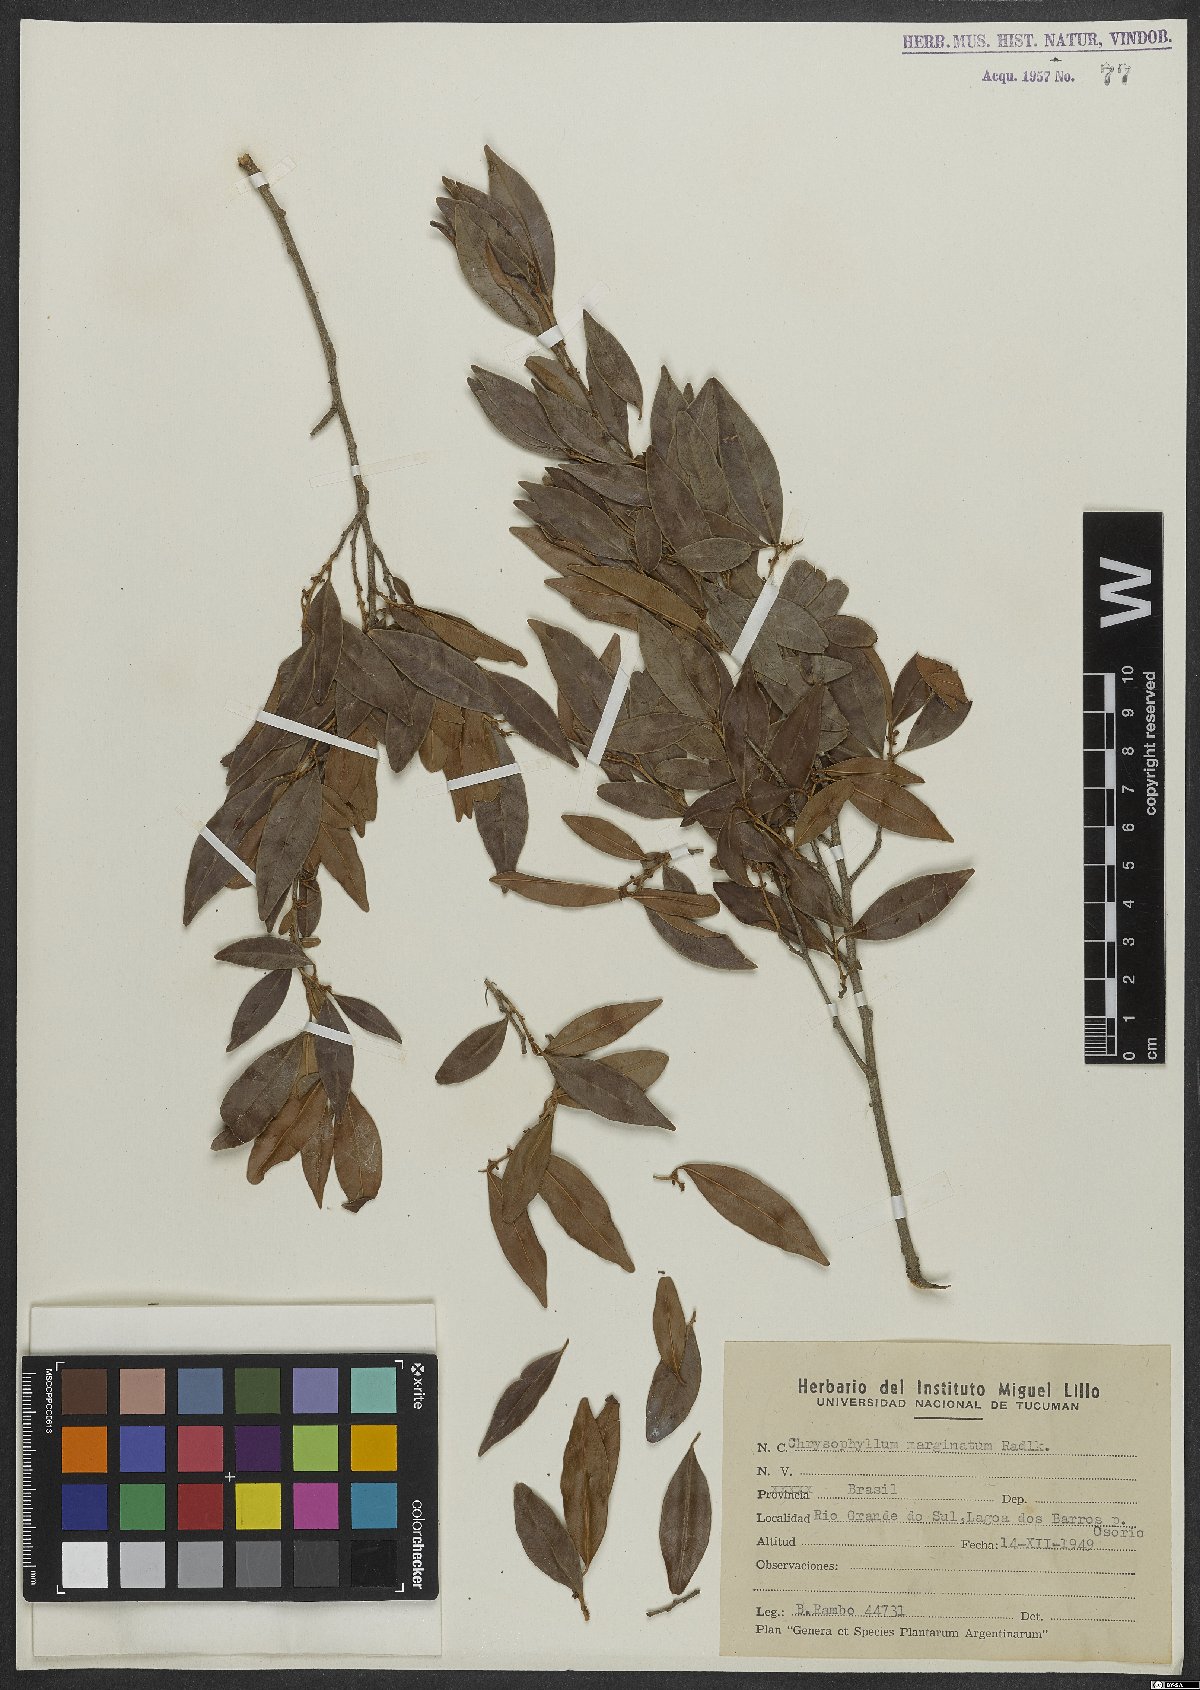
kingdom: Plantae
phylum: Tracheophyta
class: Magnoliopsida
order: Ericales
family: Sapotaceae
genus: Chrysophyllum
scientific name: Chrysophyllum marginatum
